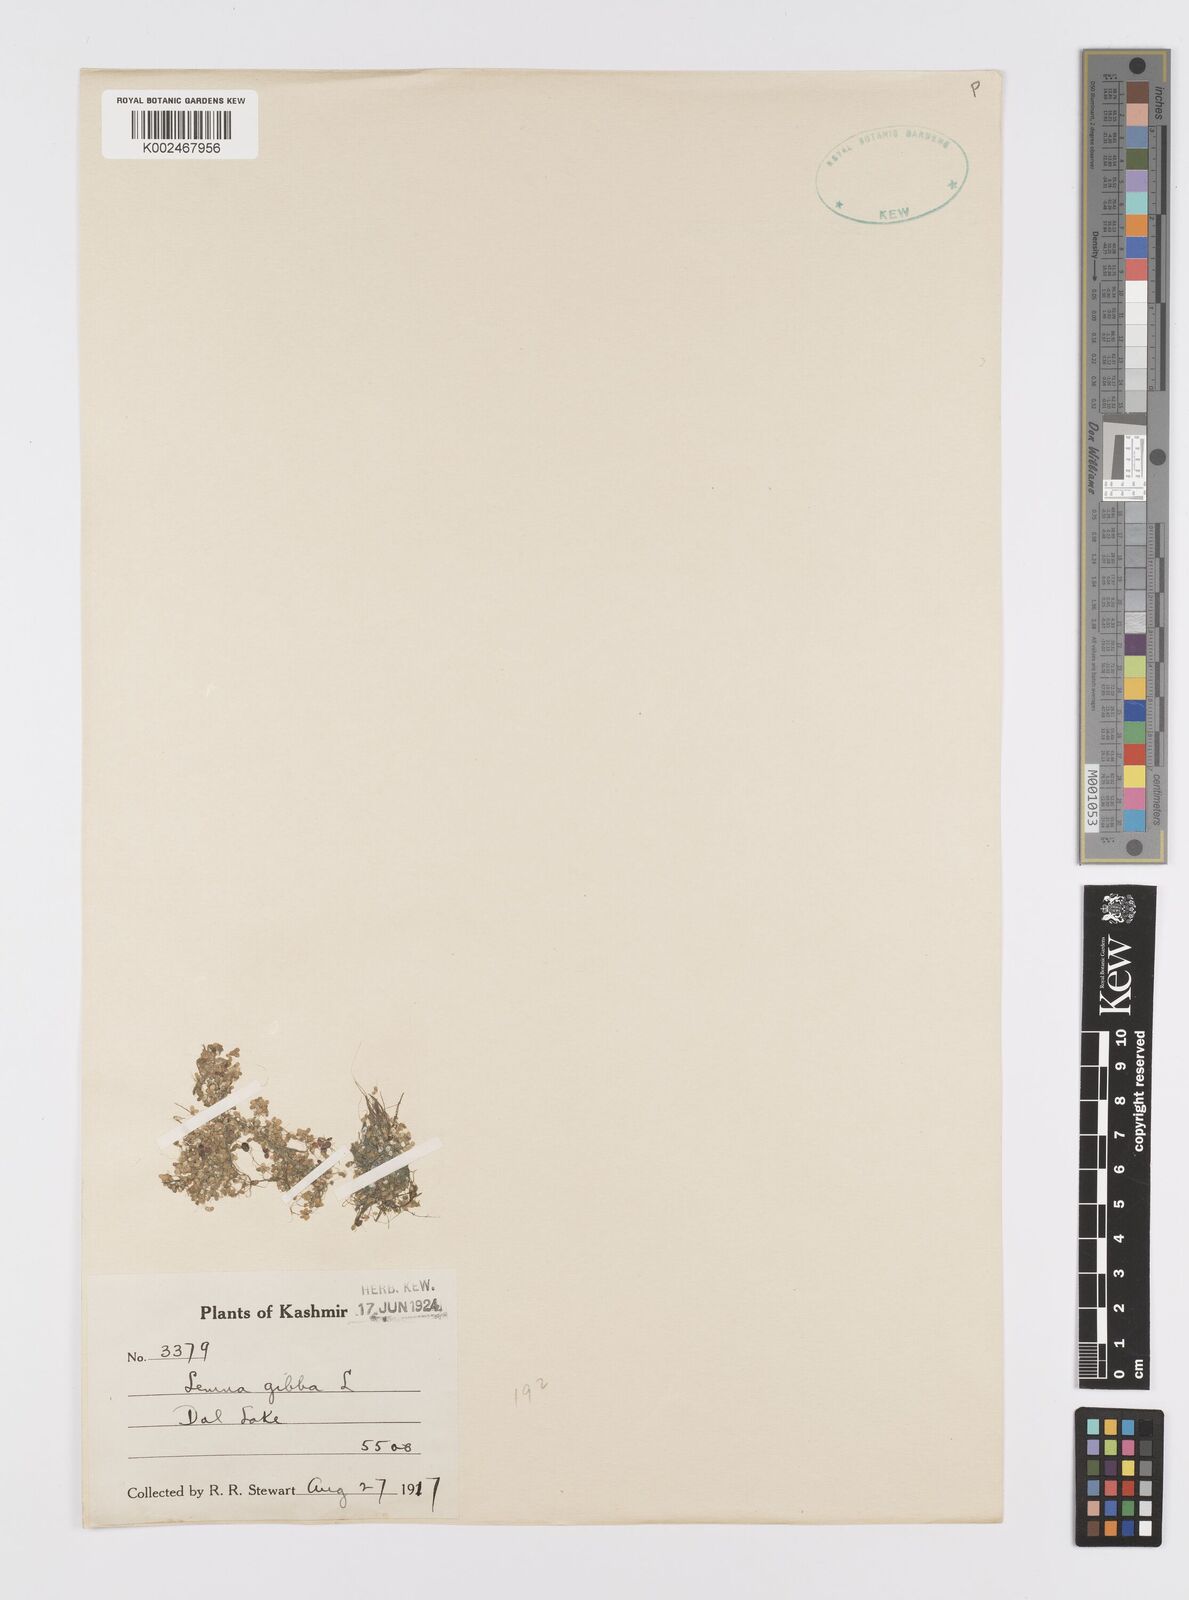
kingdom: Plantae
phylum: Tracheophyta
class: Liliopsida
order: Alismatales
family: Araceae
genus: Lemna
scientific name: Lemna gibba
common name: Fat duckweed
